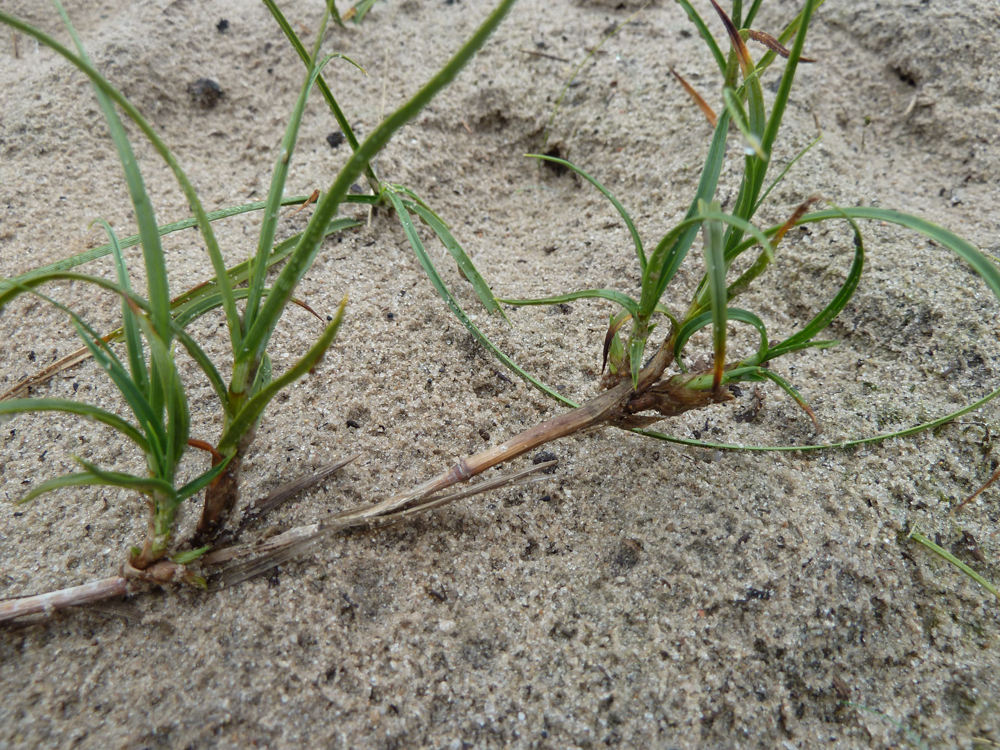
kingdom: Plantae
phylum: Tracheophyta
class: Liliopsida
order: Poales
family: Cyperaceae
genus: Carex
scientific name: Carex arenaria
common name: Sand sedge
